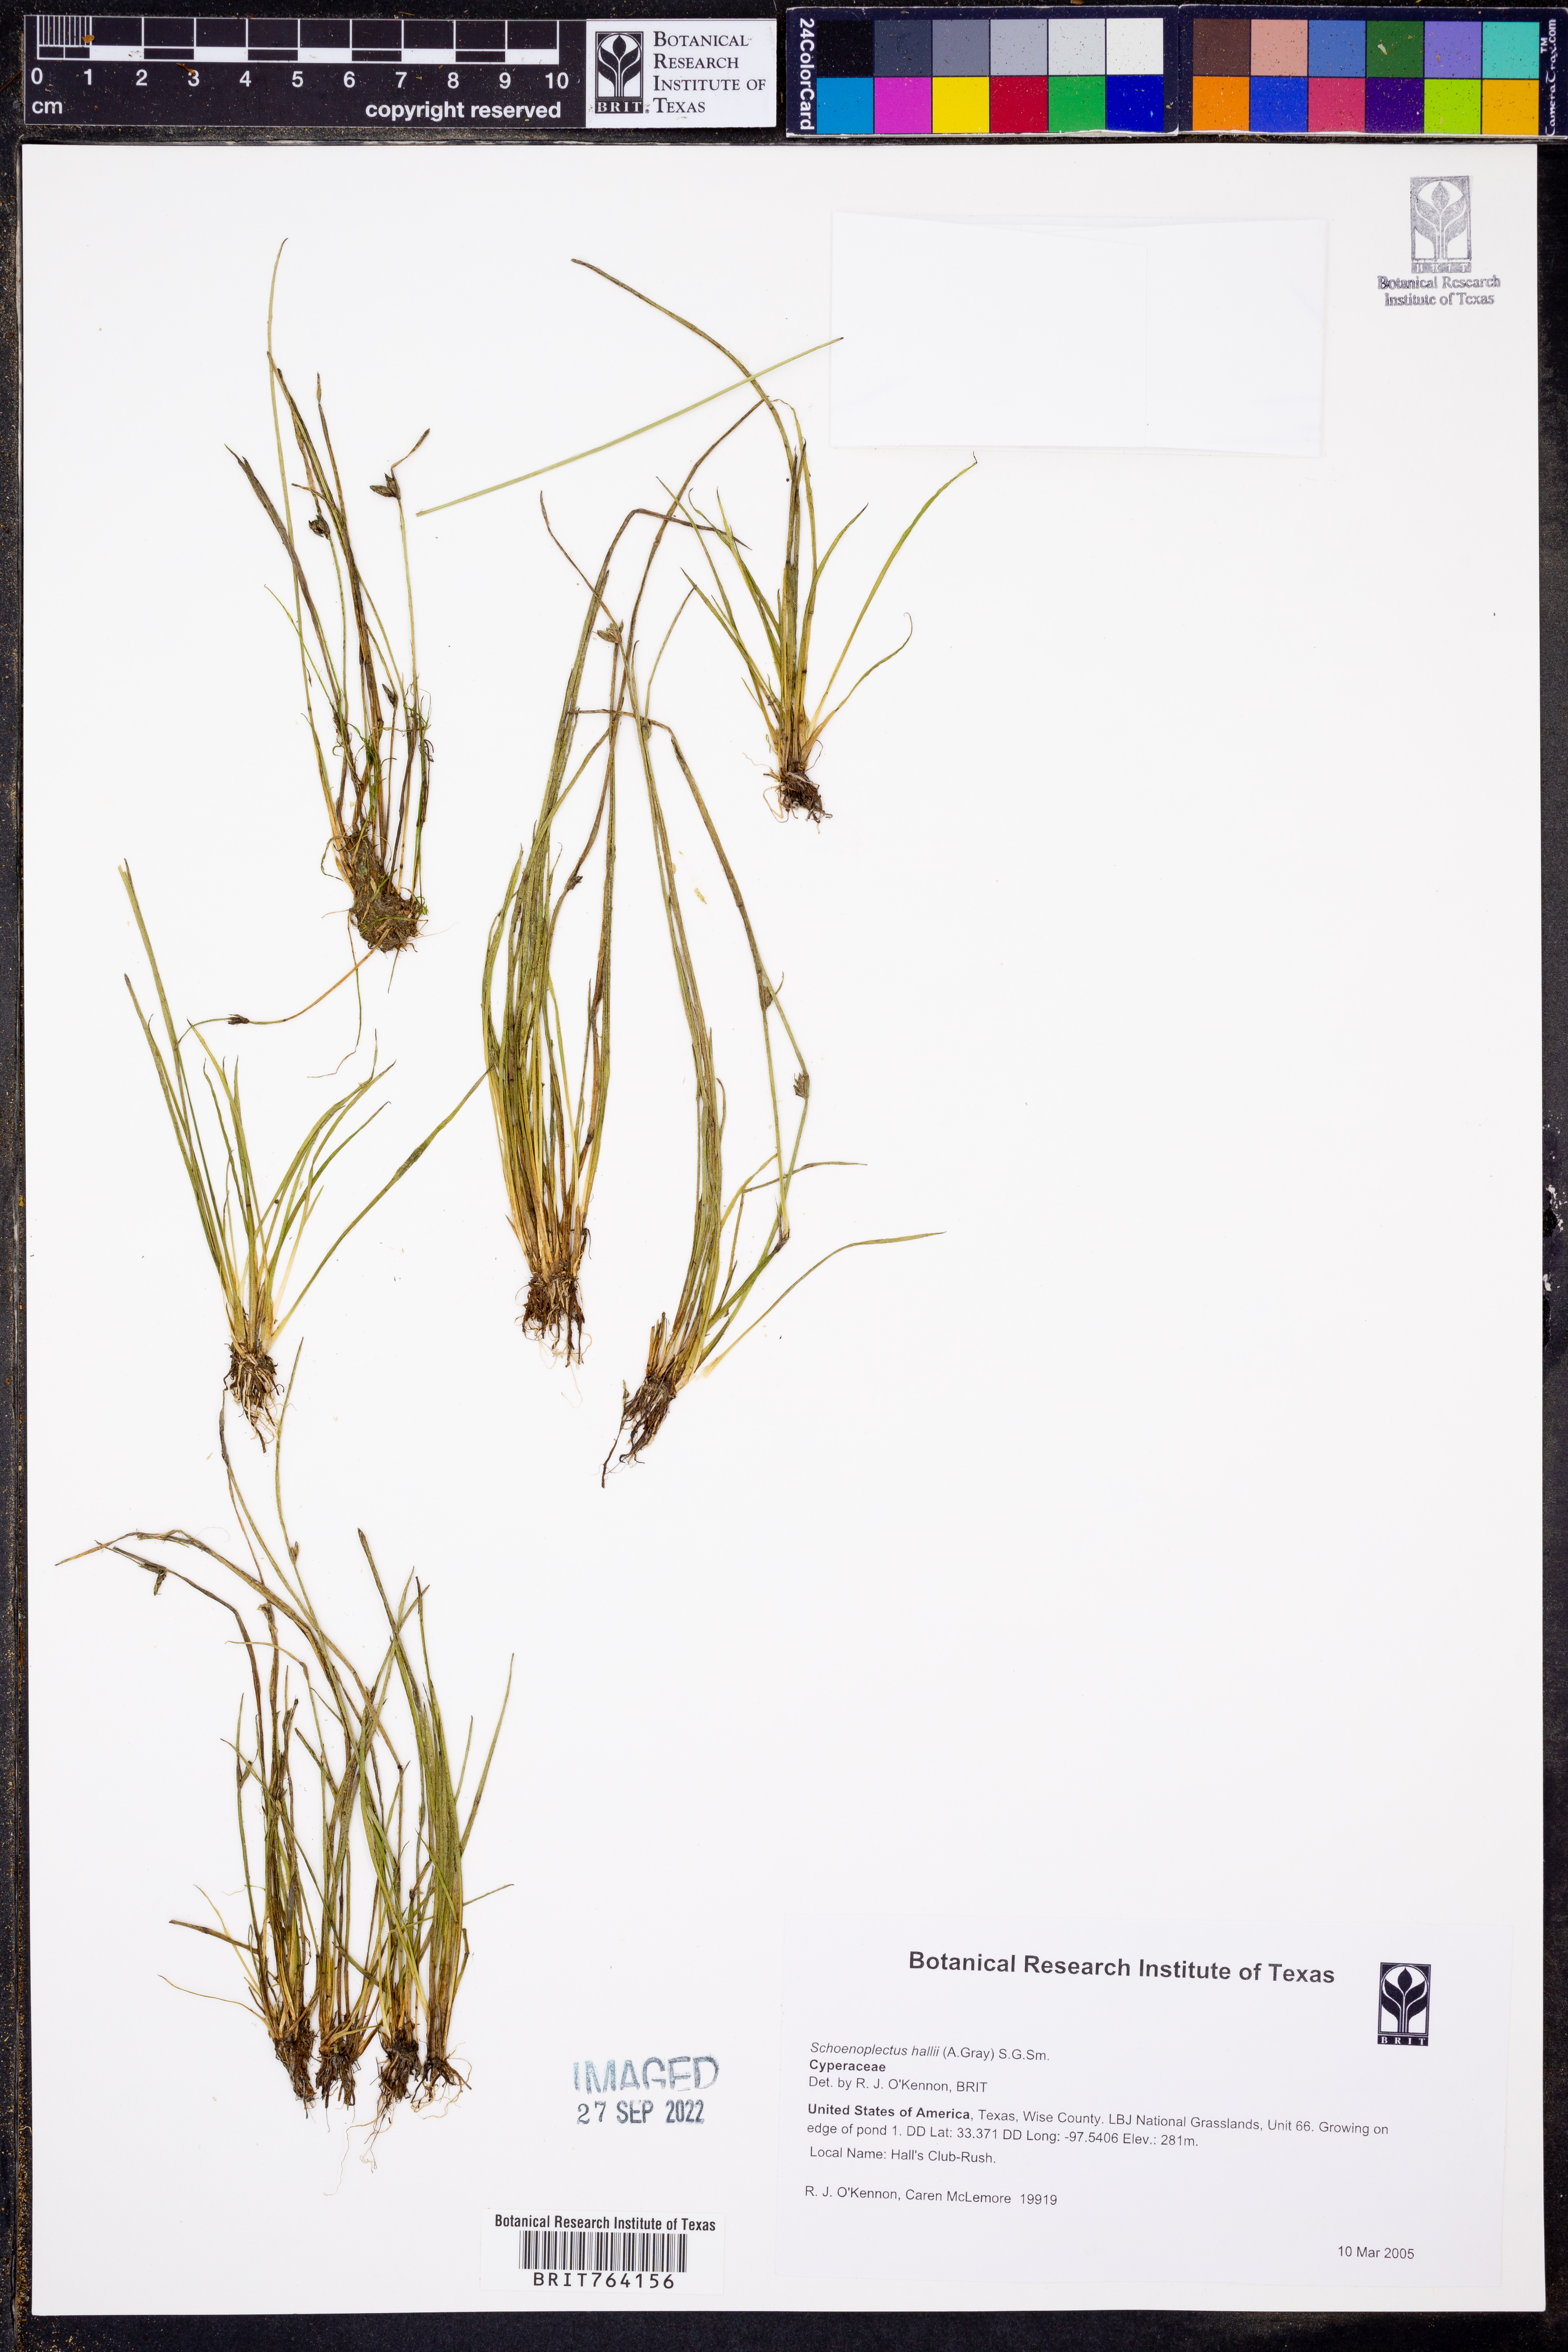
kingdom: Plantae
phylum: Tracheophyta
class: Liliopsida
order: Poales
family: Cyperaceae
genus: Schoenoplectiella
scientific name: Schoenoplectiella hallii
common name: Hall's bullrush
